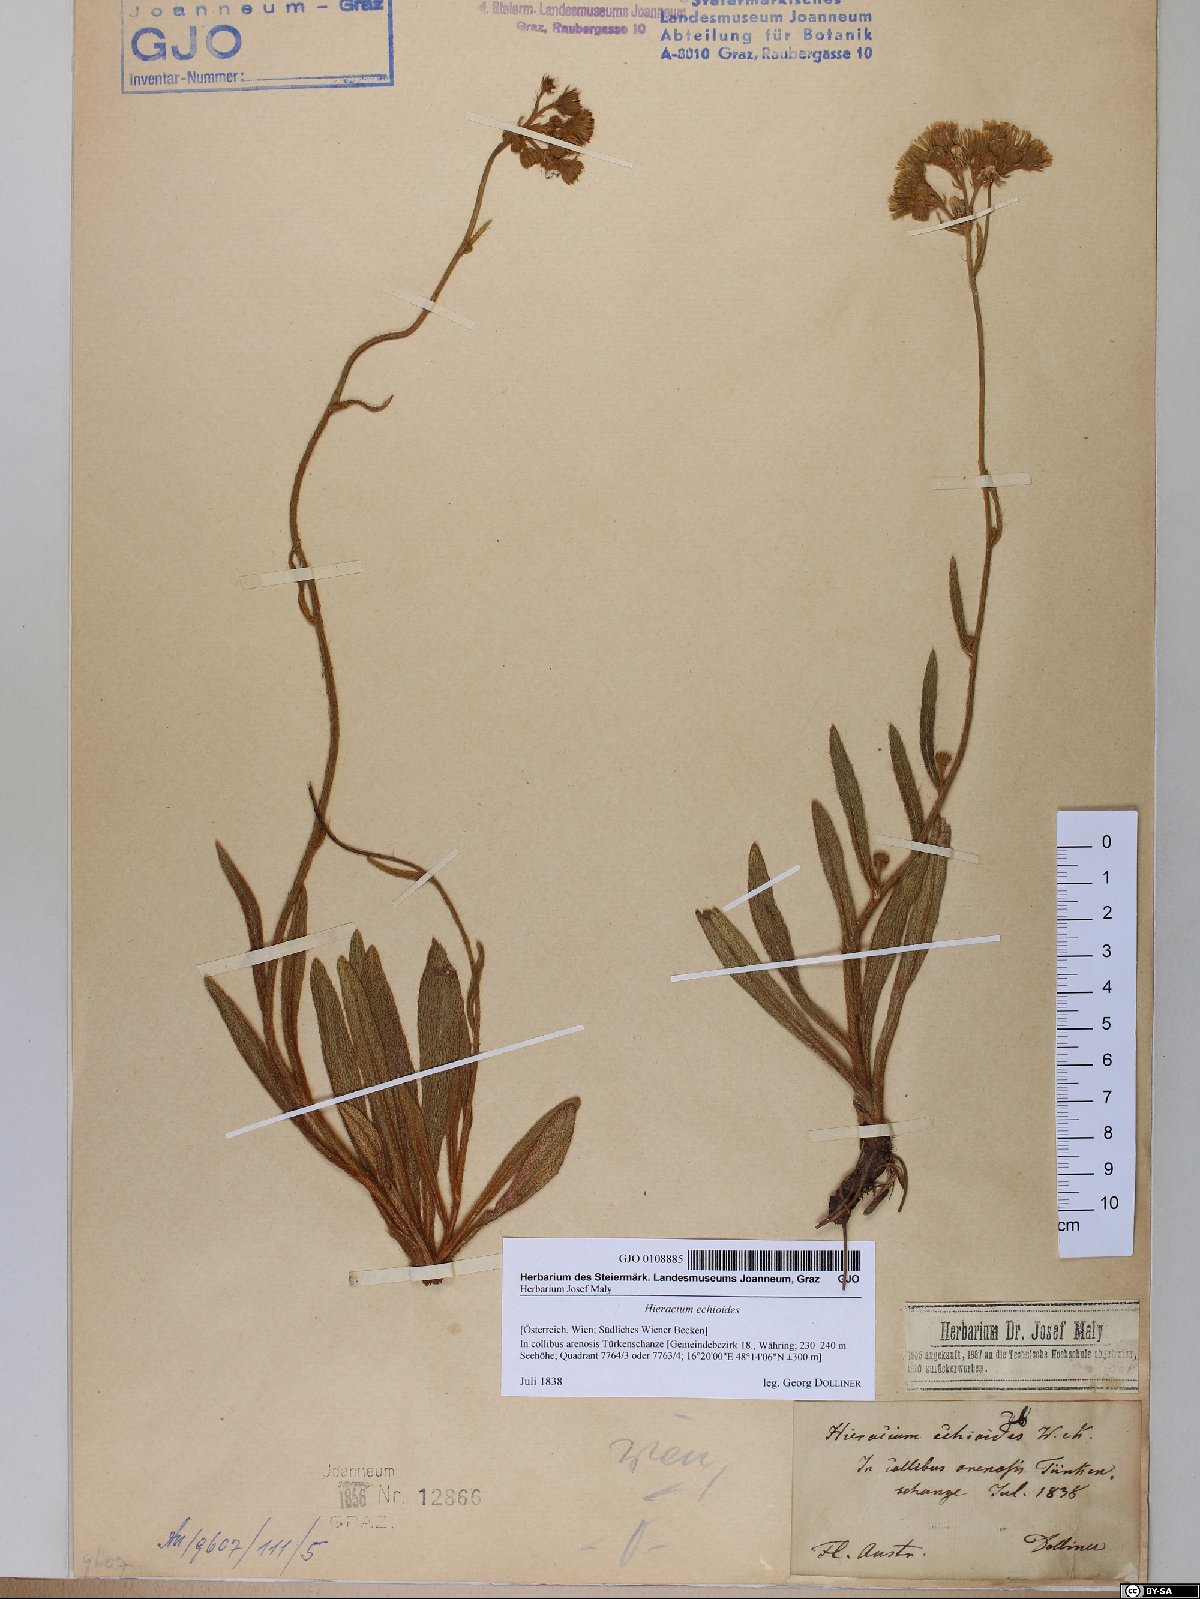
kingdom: Plantae
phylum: Tracheophyta
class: Magnoliopsida
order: Asterales
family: Asteraceae
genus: Pilosella
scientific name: Pilosella echioides
